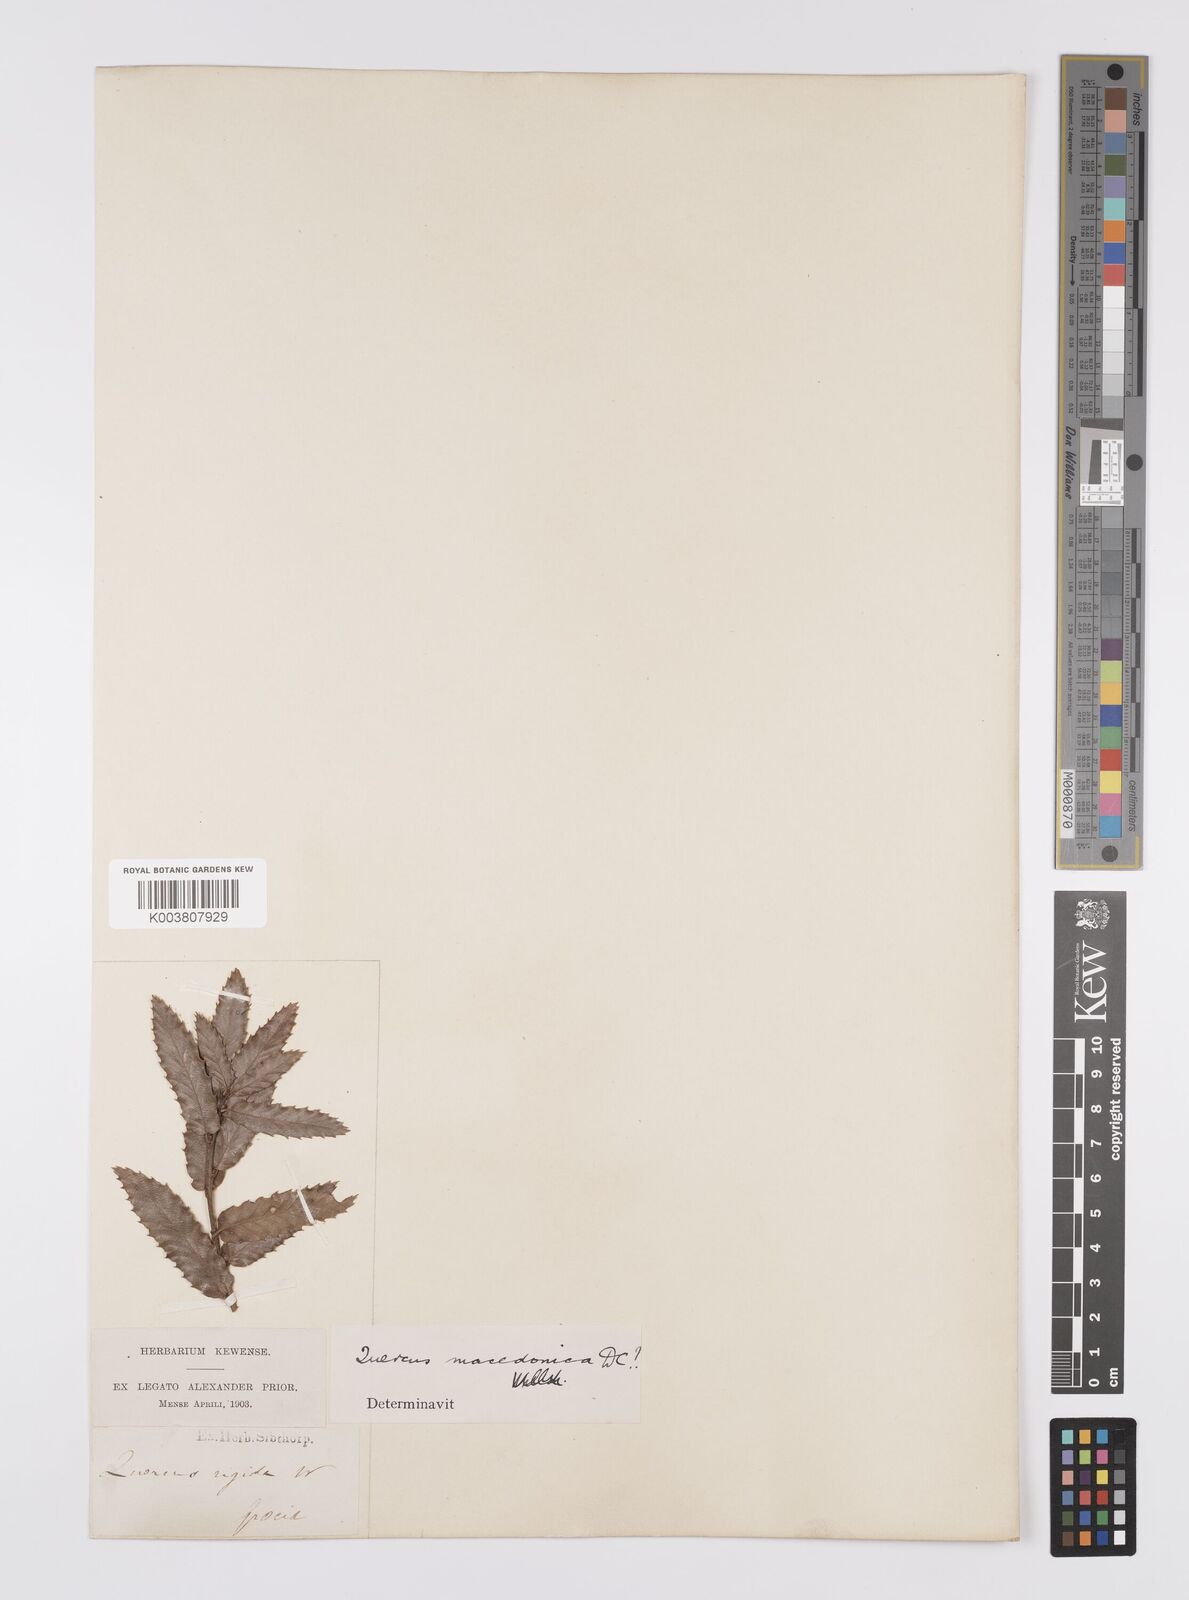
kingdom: Plantae
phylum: Tracheophyta
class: Magnoliopsida
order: Fagales
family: Fagaceae
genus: Quercus
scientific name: Quercus trojana
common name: Macedonian oak
